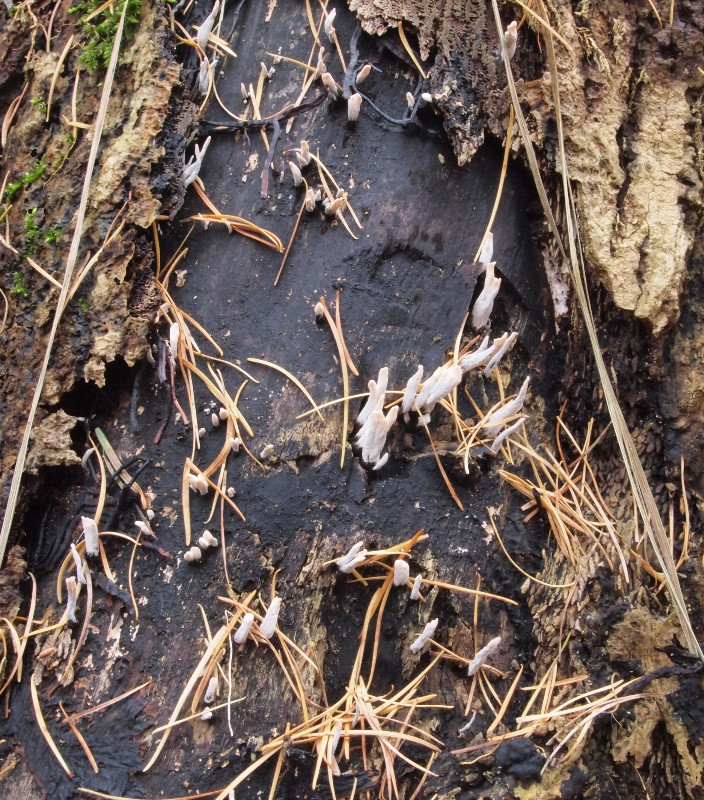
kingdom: Fungi
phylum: Ascomycota
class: Sordariomycetes
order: Xylariales
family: Xylariaceae
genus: Xylaria
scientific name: Xylaria hypoxylon
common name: grenet stødsvamp
